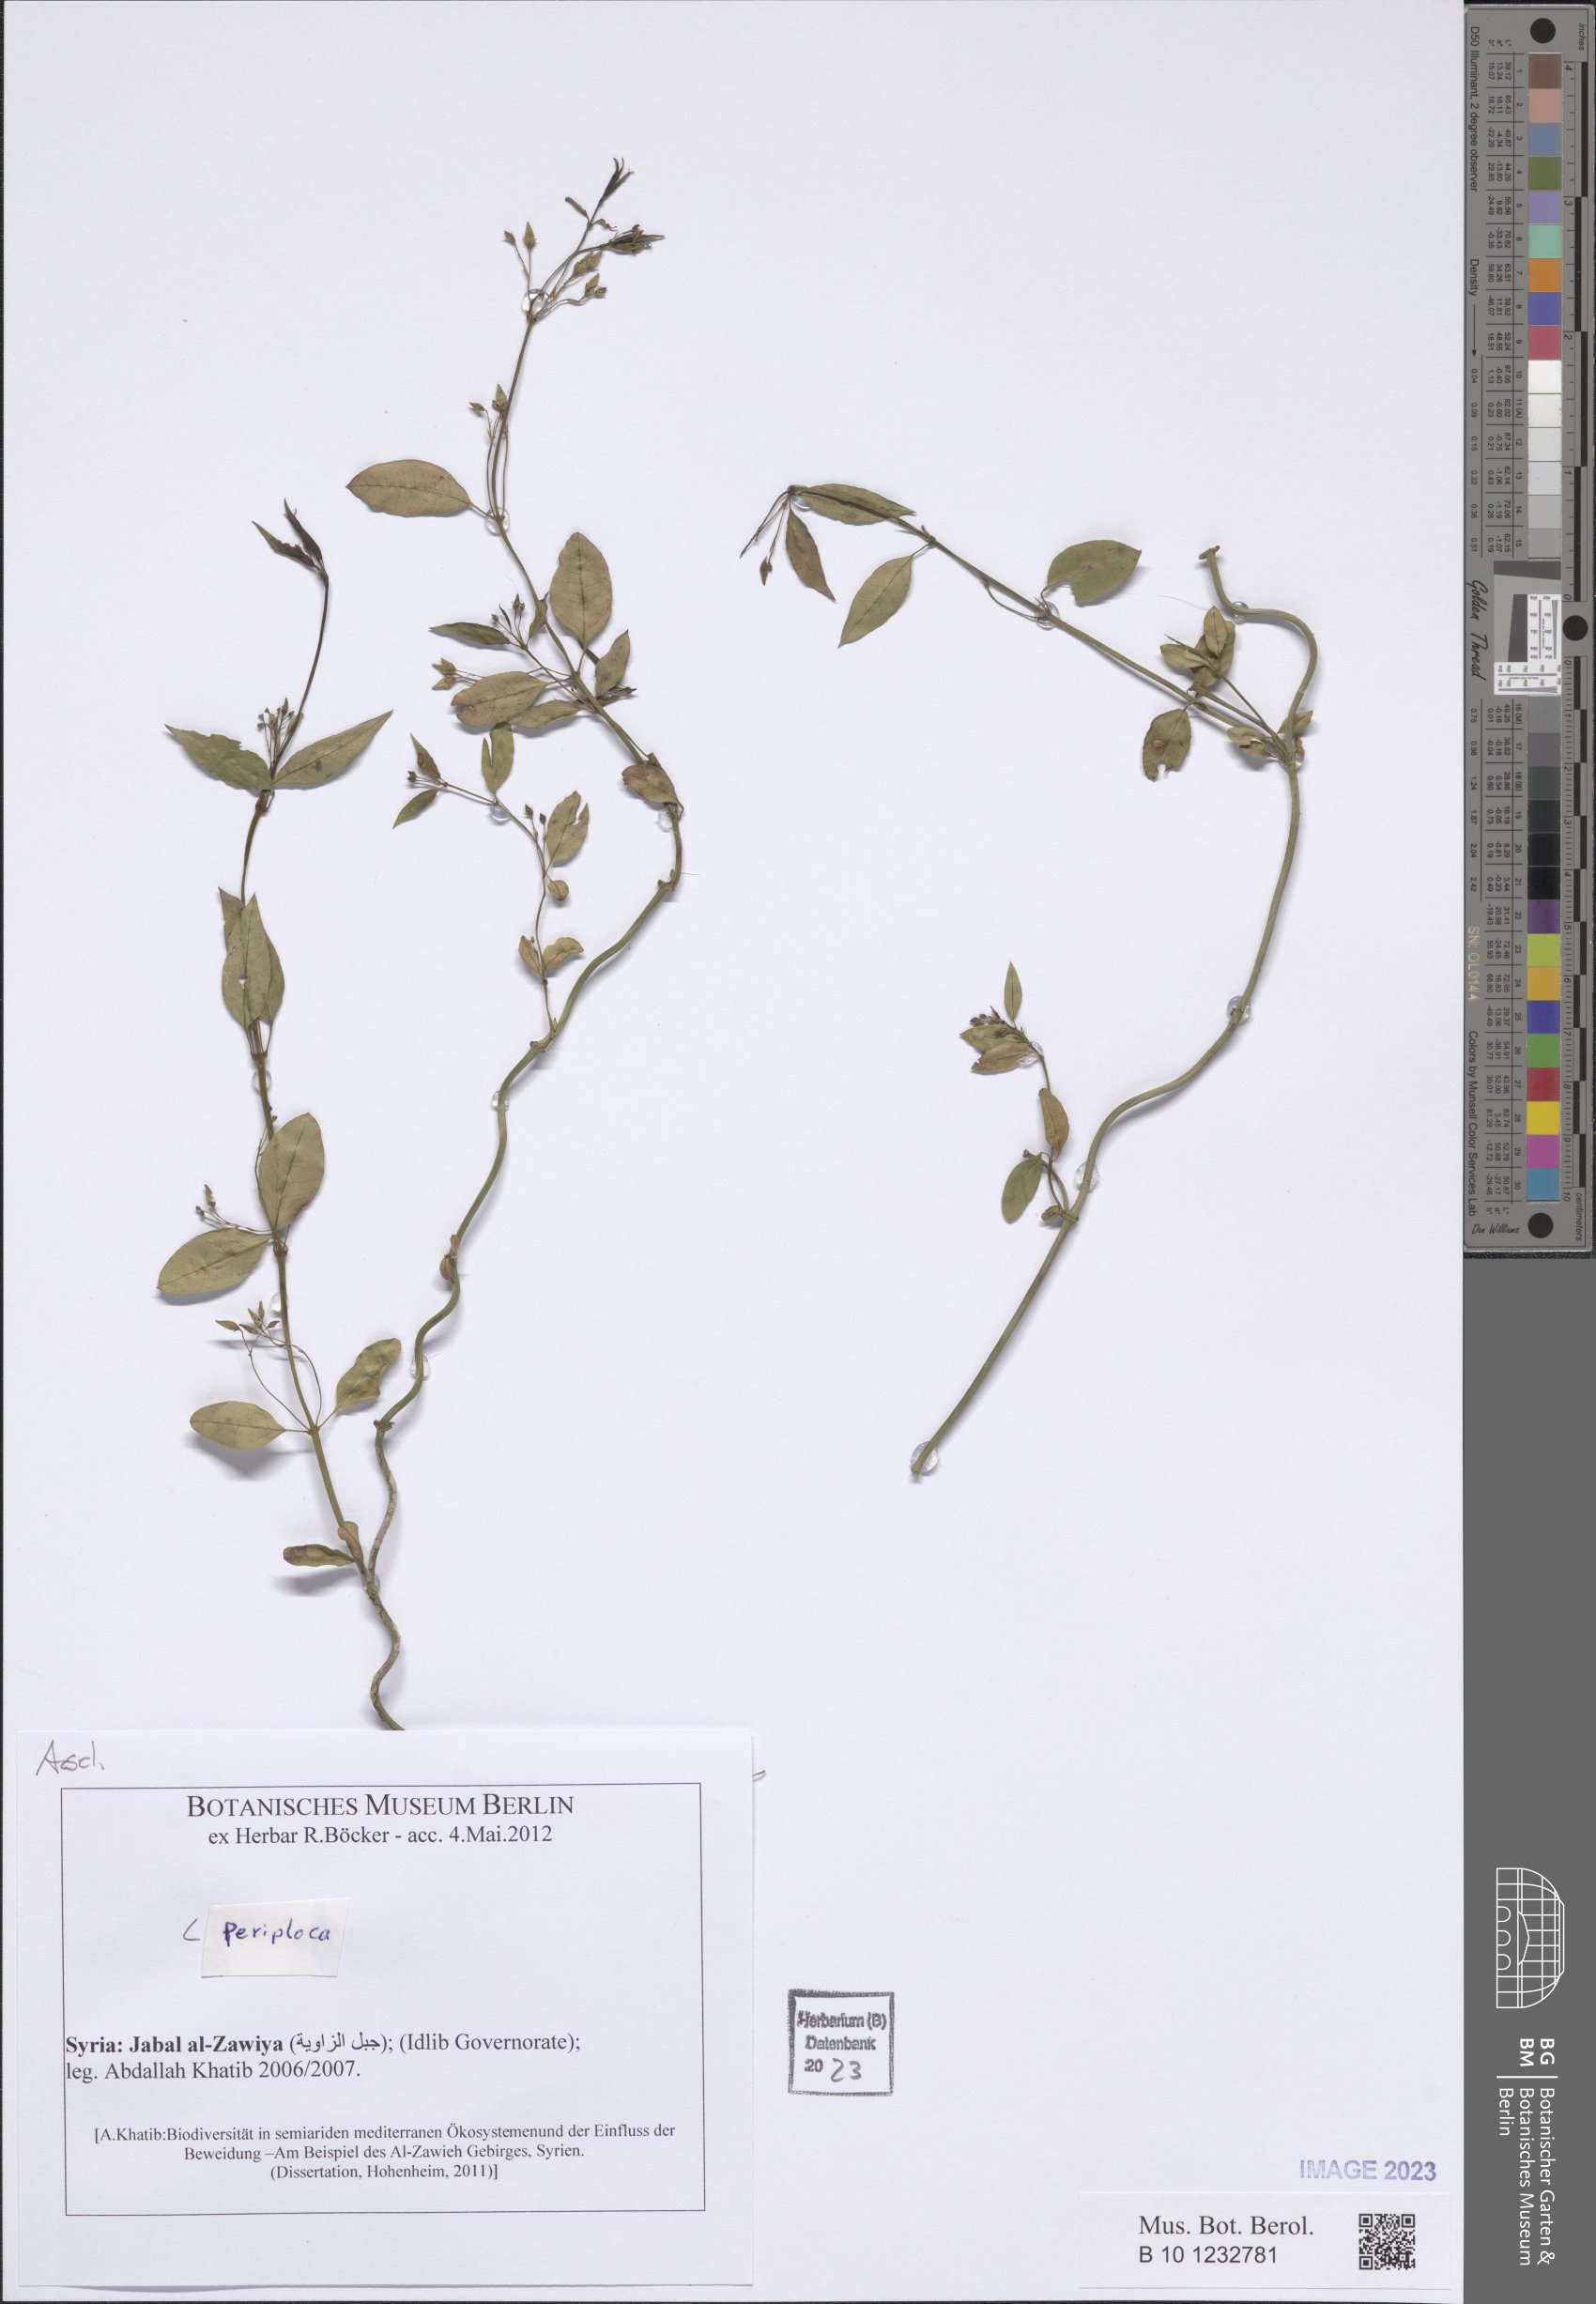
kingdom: Plantae
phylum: Tracheophyta
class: Magnoliopsida
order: Gentianales
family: Apocynaceae
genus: Periploca
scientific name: Periploca
